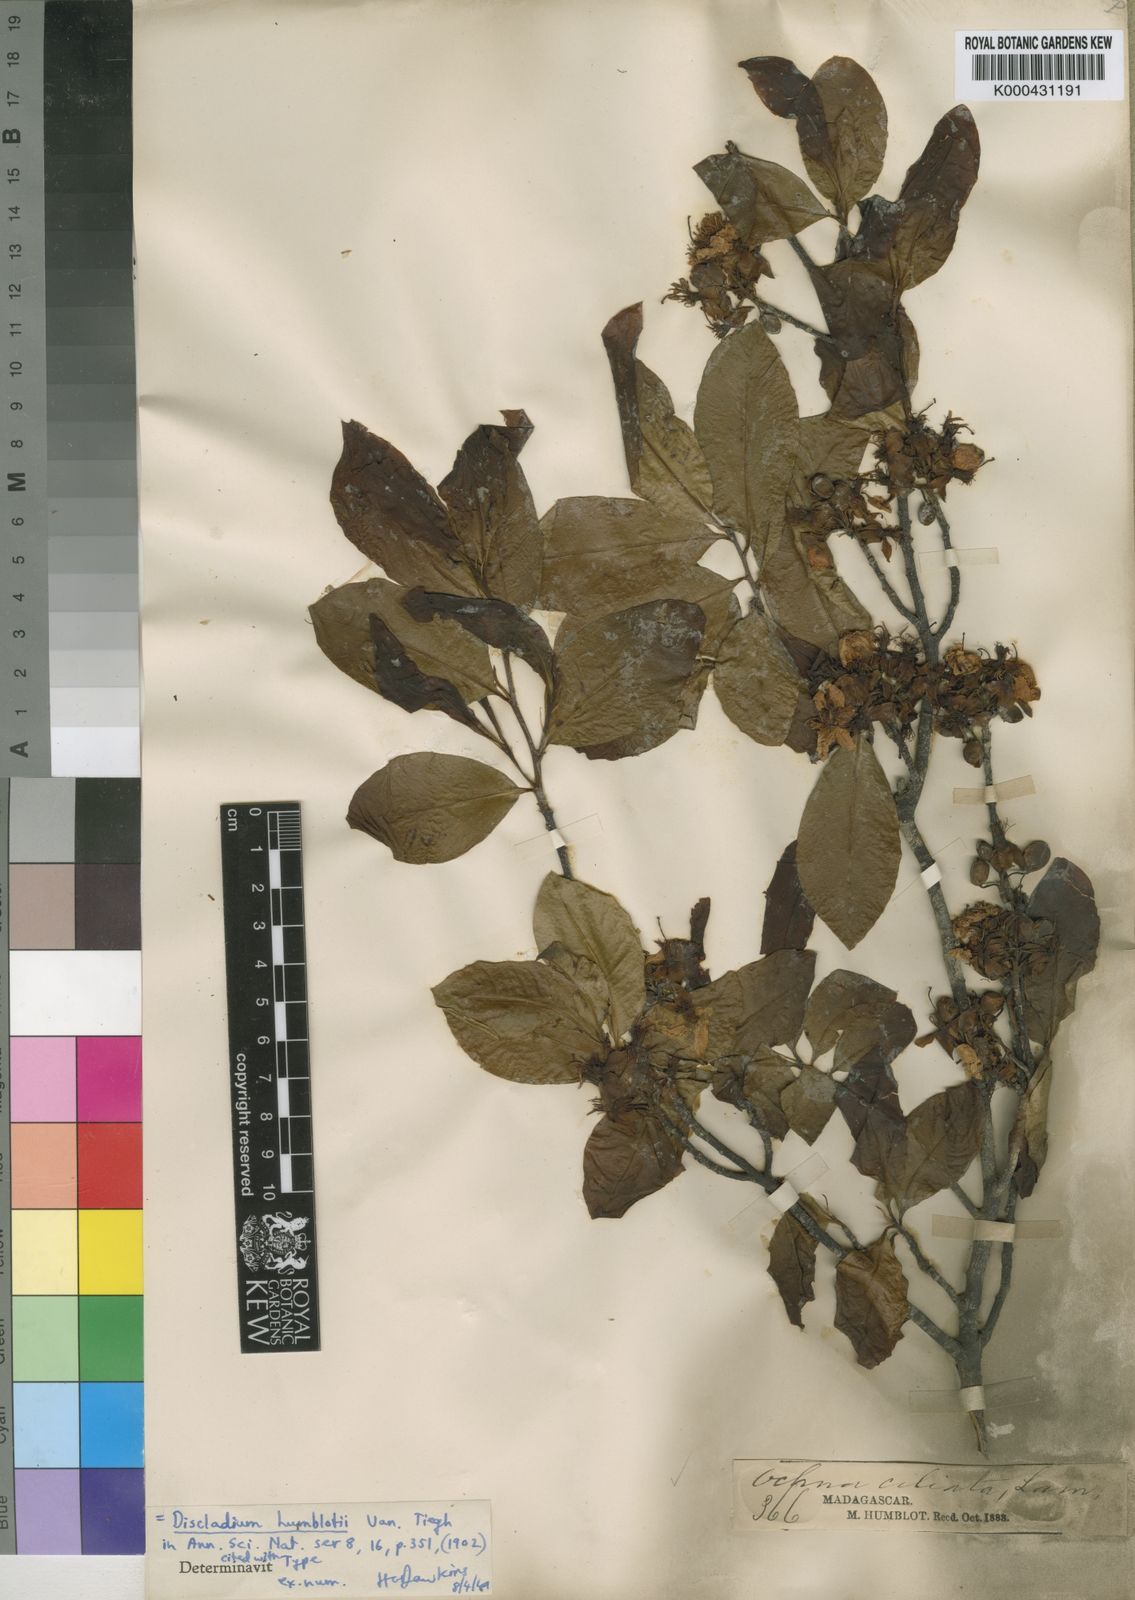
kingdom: Plantae
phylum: Tracheophyta
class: Magnoliopsida
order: Malpighiales
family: Ochnaceae
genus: Campylospermum
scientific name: Campylospermum humblotii
